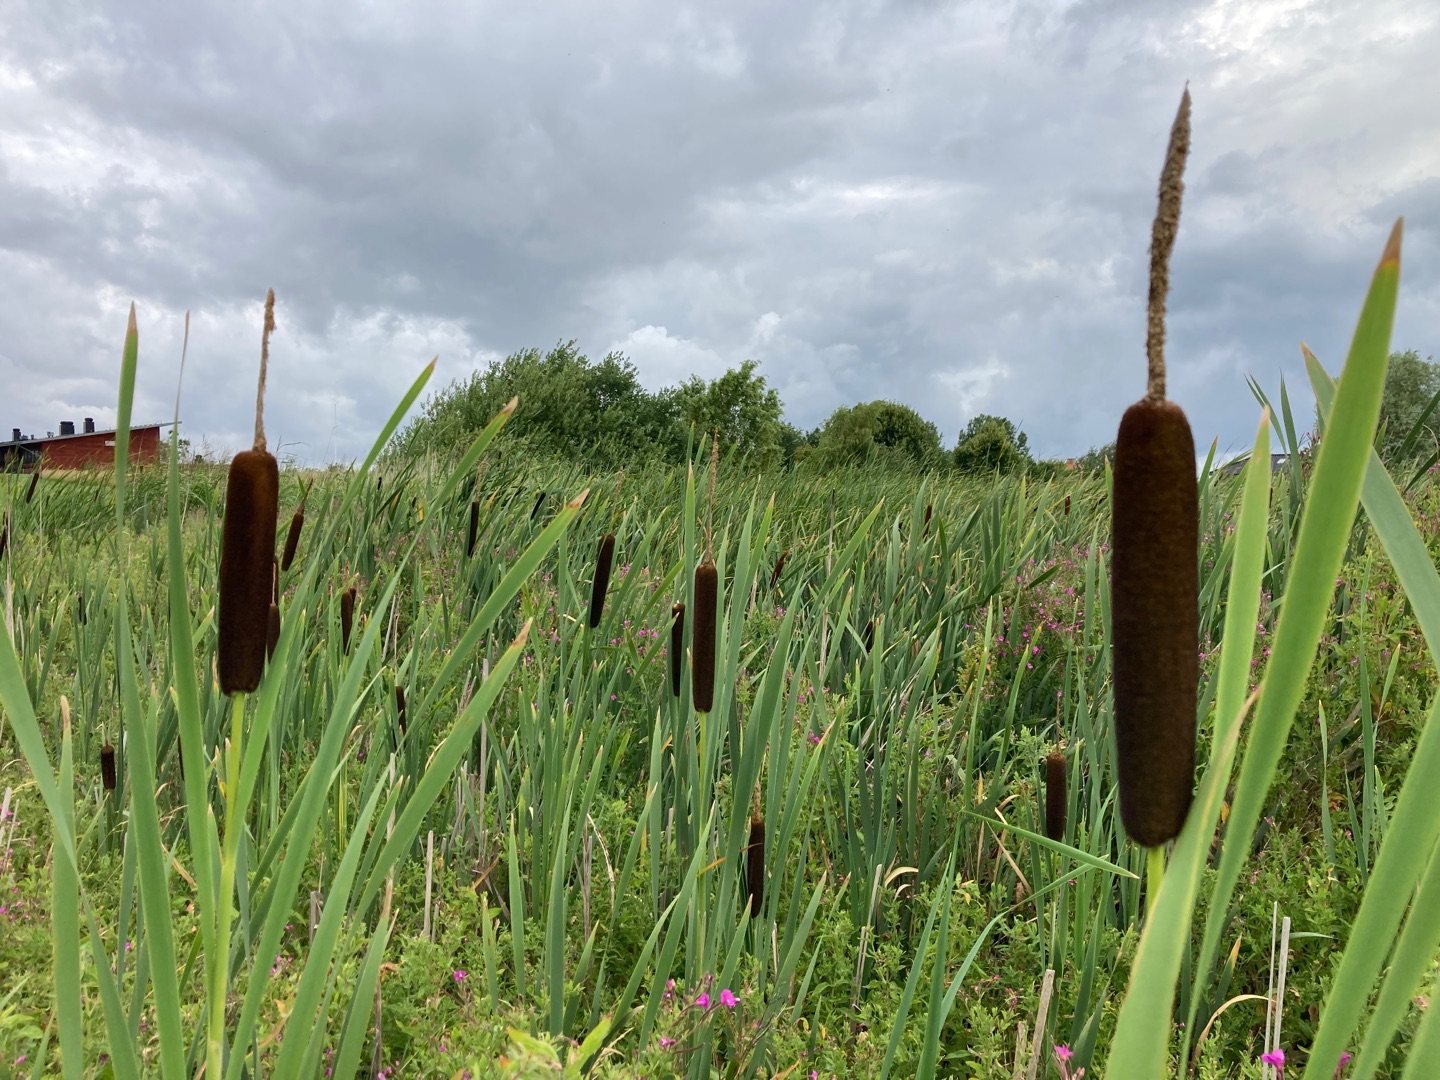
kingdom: Plantae
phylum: Tracheophyta
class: Liliopsida
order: Poales
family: Typhaceae
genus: Typha
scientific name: Typha latifolia
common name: Bredbladet dunhammer
